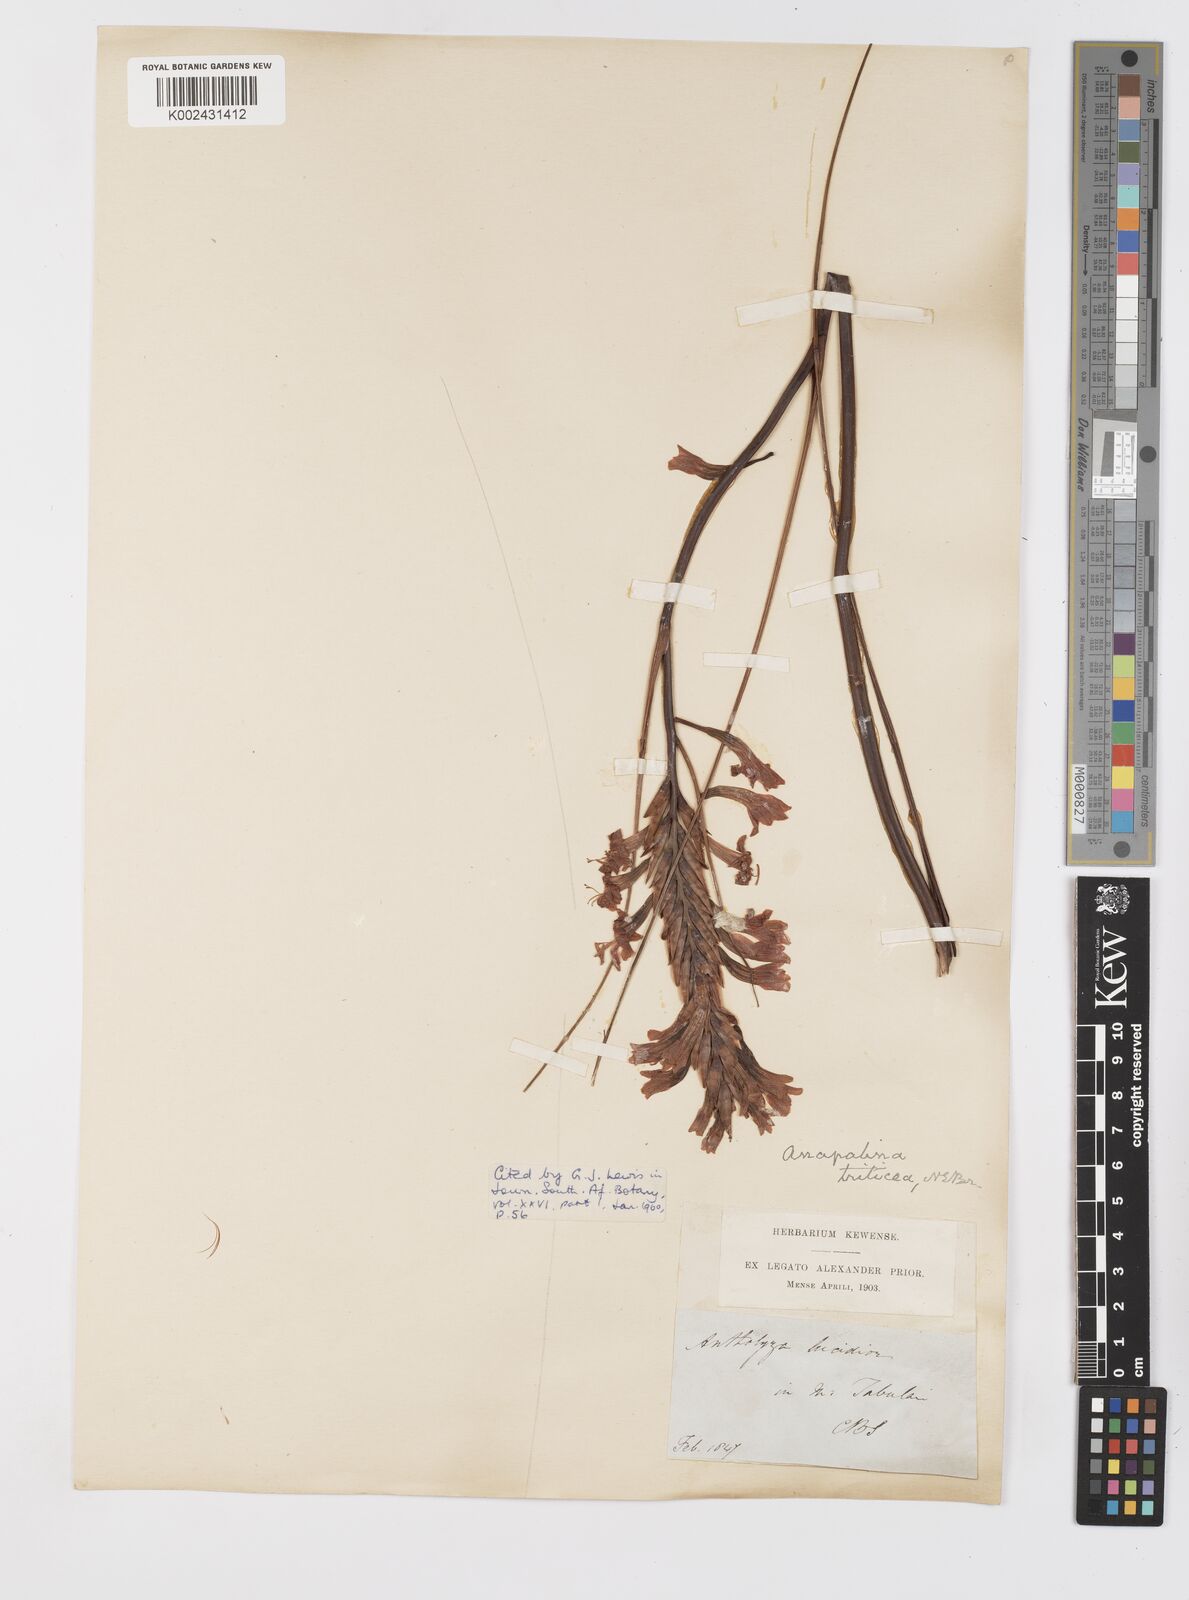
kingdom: Plantae
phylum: Tracheophyta
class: Liliopsida
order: Asparagales
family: Iridaceae
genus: Tritoniopsis
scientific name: Tritoniopsis triticea
